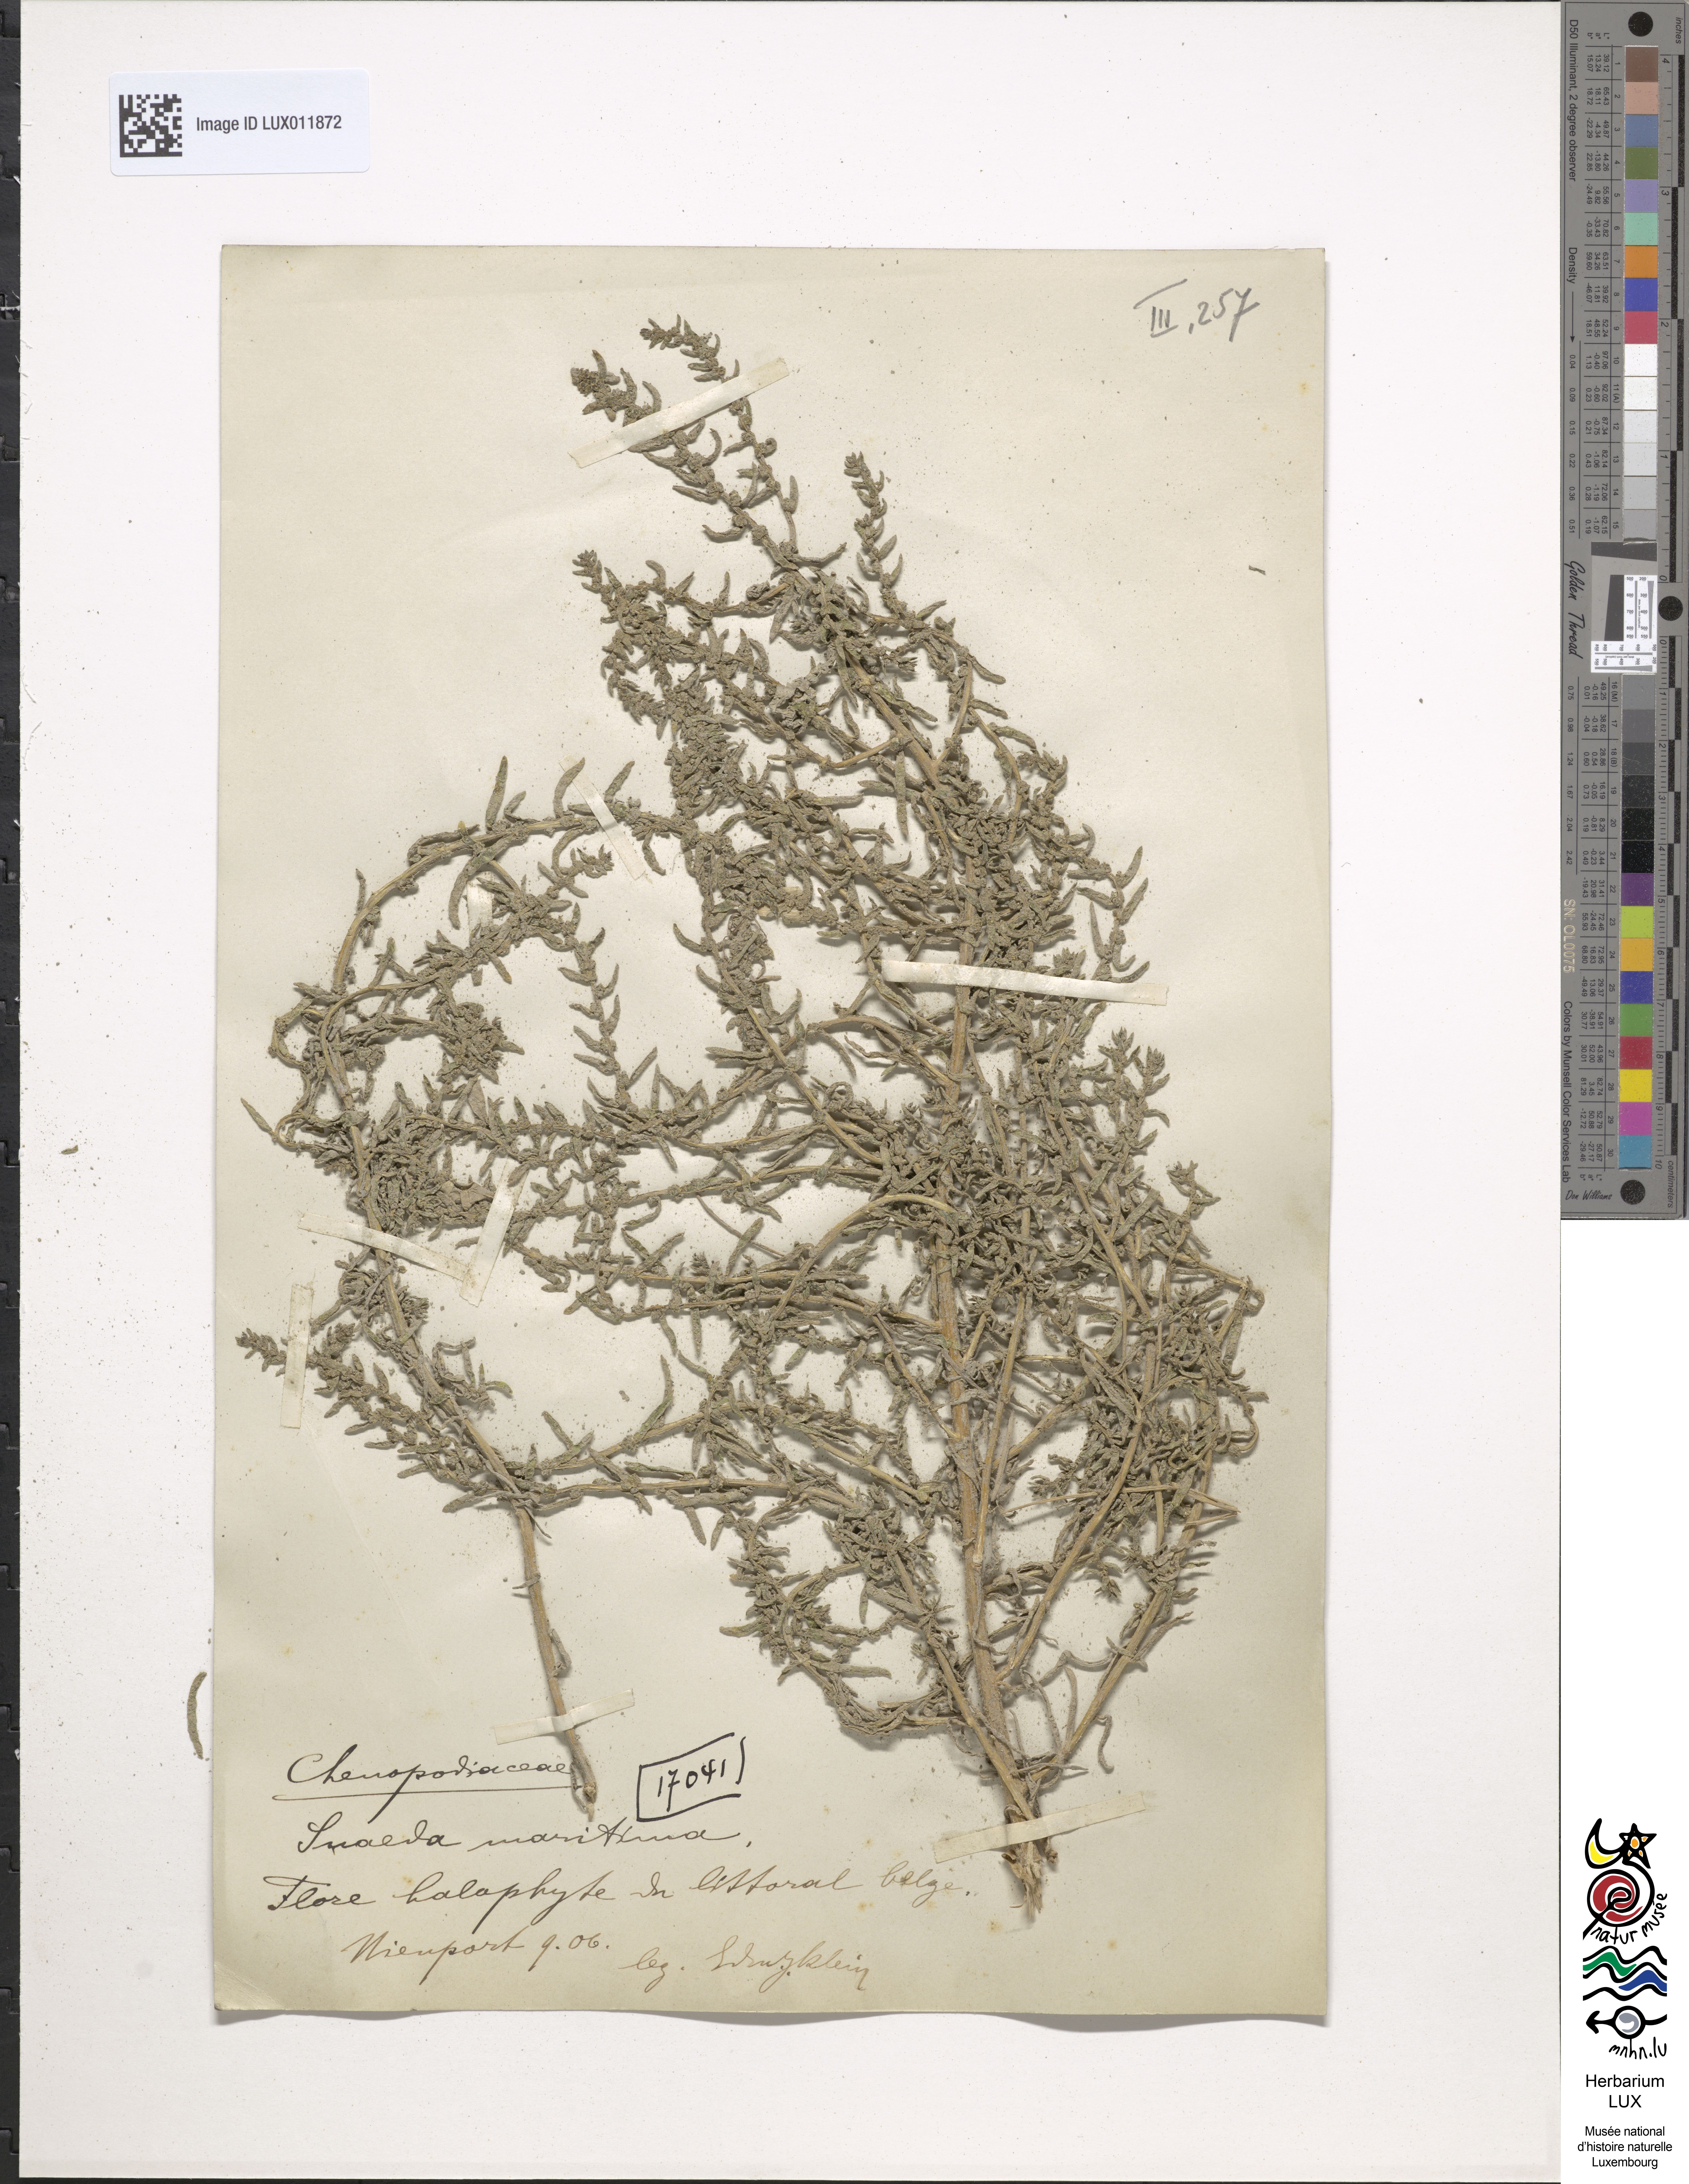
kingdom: Plantae
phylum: Tracheophyta
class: Magnoliopsida
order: Caryophyllales
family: Amaranthaceae
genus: Suaeda
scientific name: Suaeda maritima
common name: Annual sea-blite
